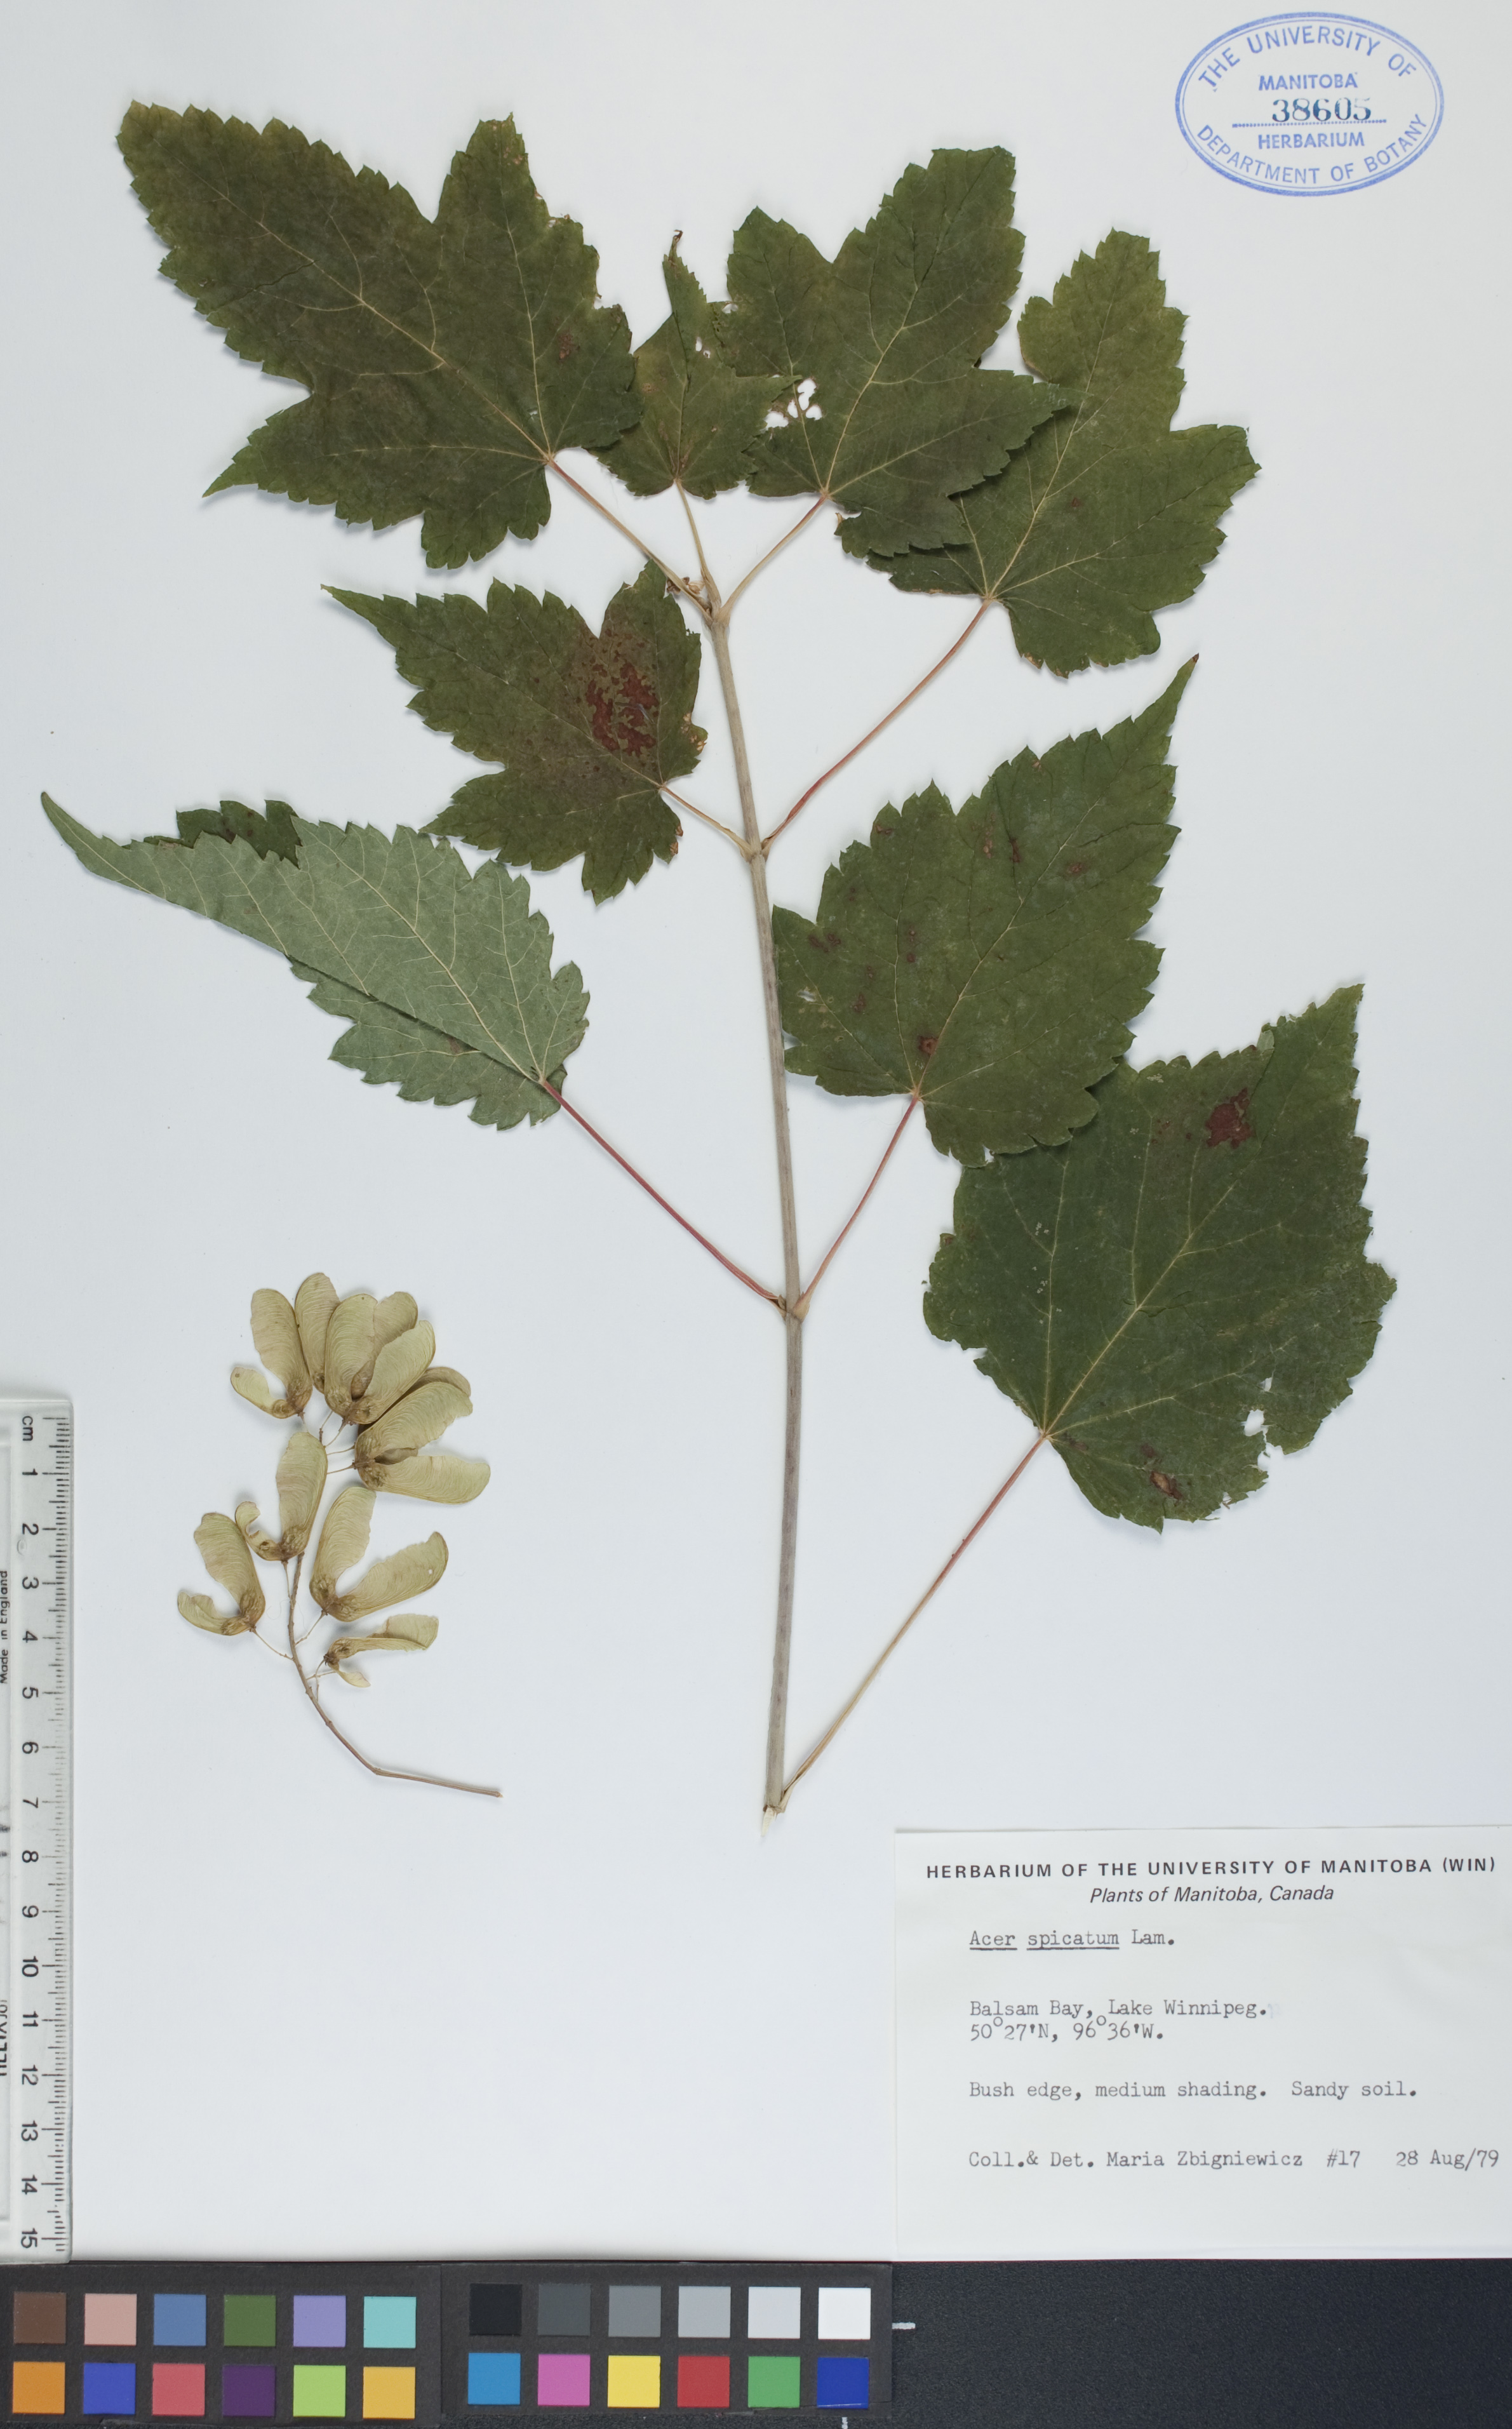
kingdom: Plantae
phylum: Tracheophyta
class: Magnoliopsida
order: Sapindales
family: Sapindaceae
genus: Acer
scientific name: Acer spicatum
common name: Mountain maple
